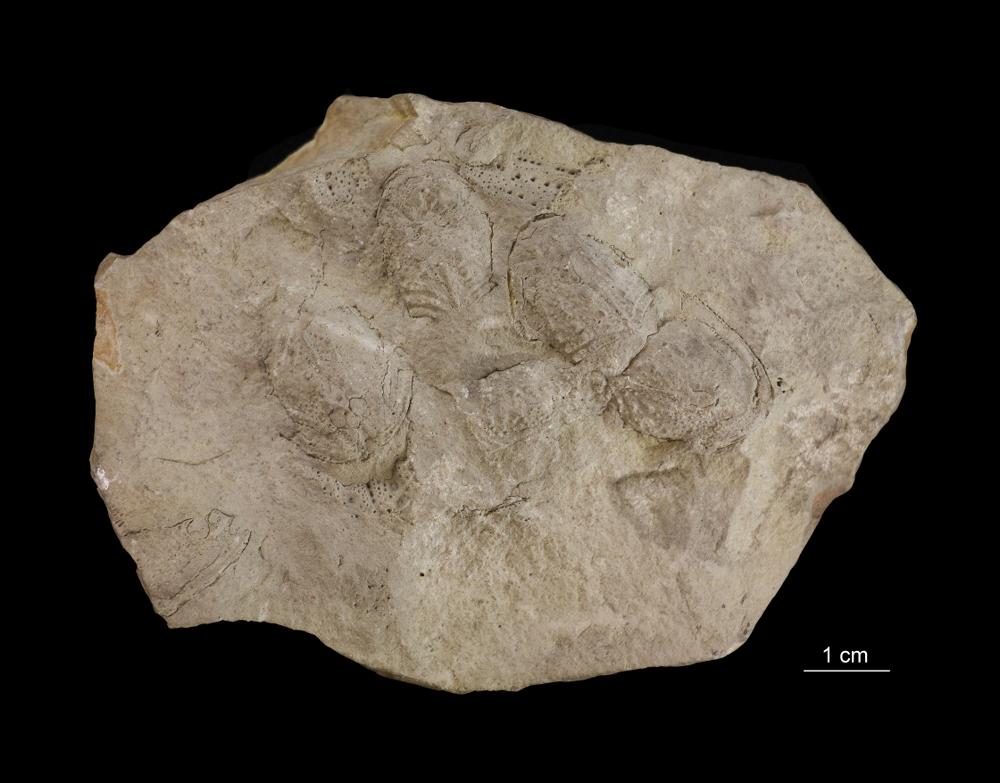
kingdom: Animalia
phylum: Chordata
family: Cephalaspididae
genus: Auchenaspis
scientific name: Auchenaspis Thyestes verrucosus
